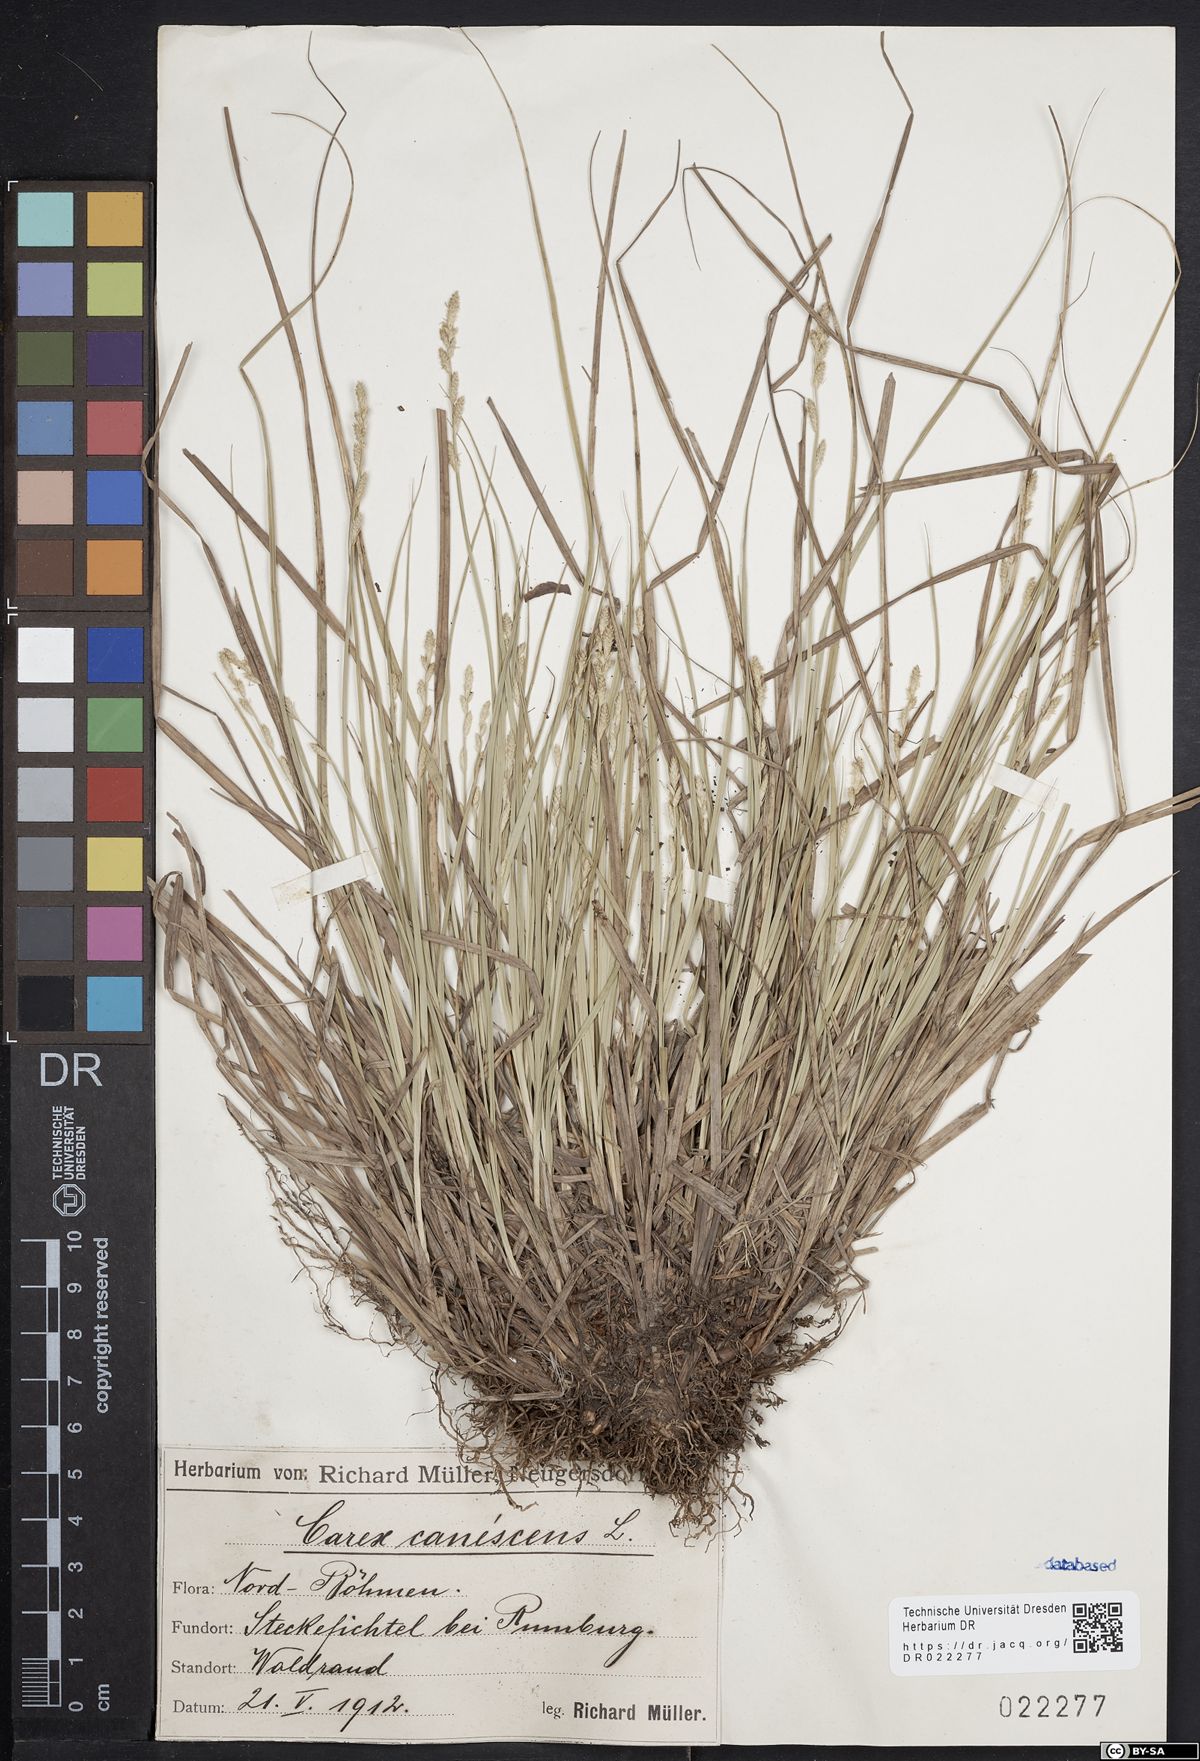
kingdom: Plantae
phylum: Tracheophyta
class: Liliopsida
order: Poales
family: Cyperaceae
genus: Carex
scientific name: Carex canescens
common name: White sedge
